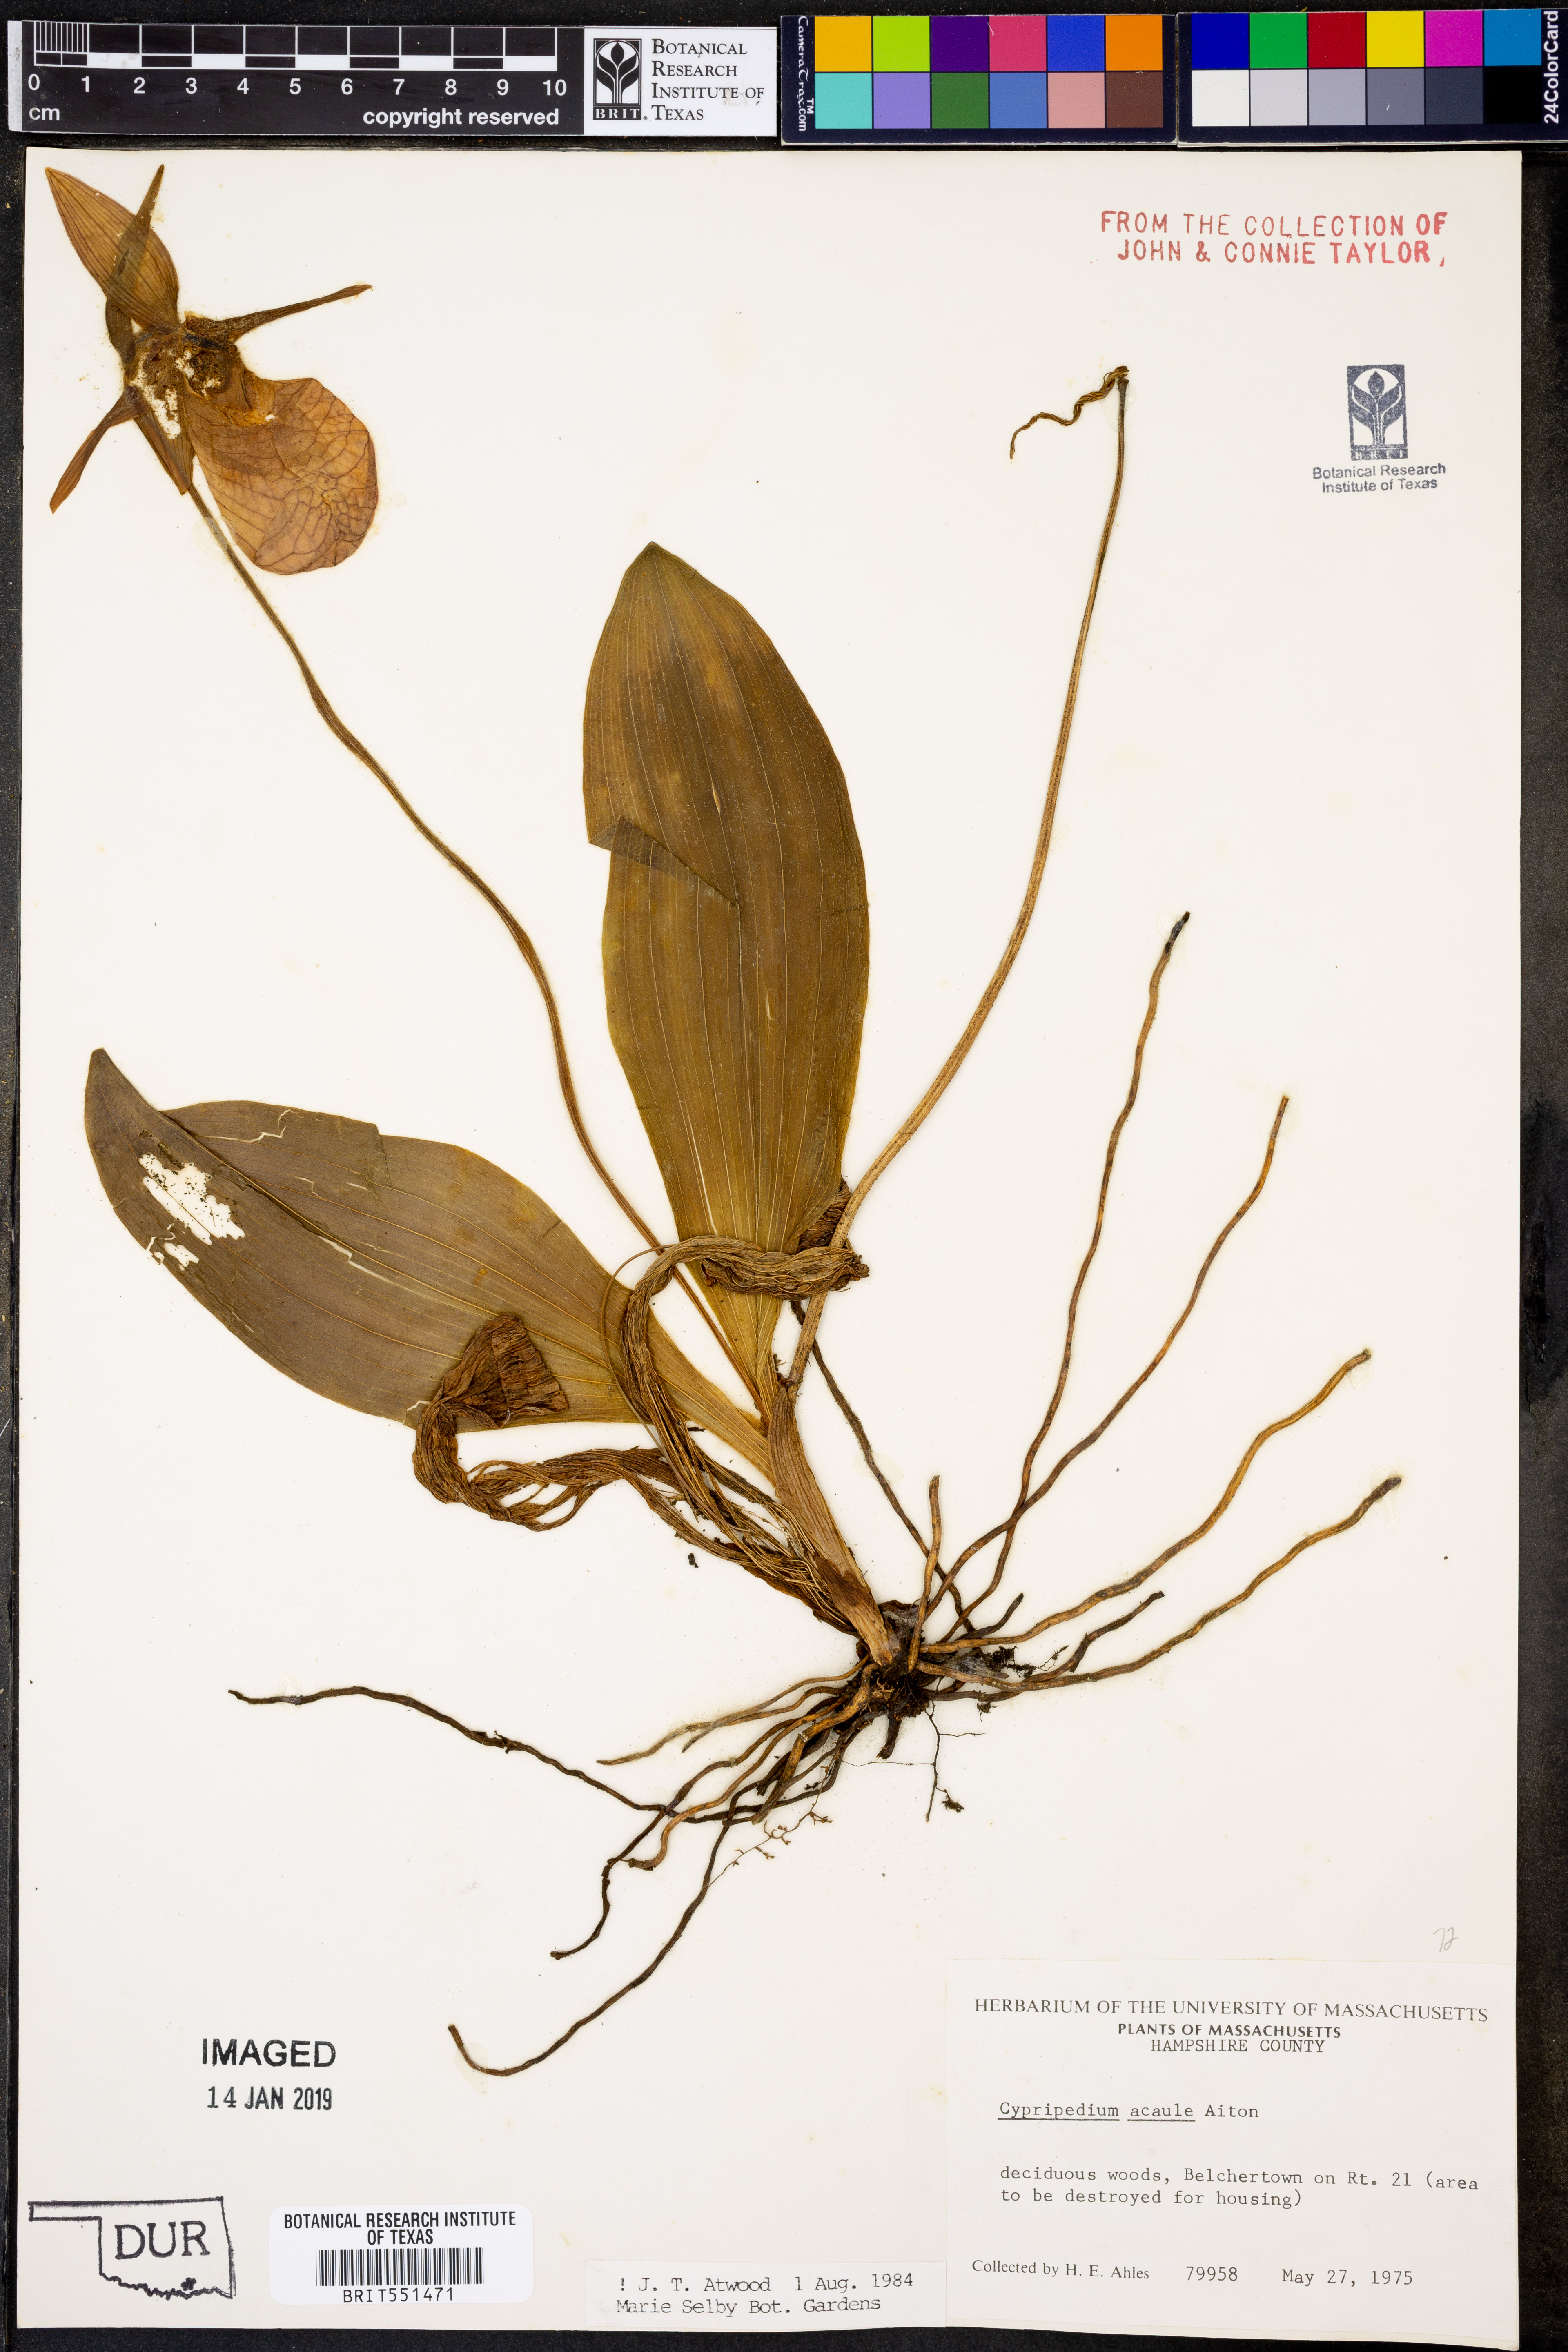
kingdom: Plantae
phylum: Tracheophyta
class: Liliopsida
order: Asparagales
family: Orchidaceae
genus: Cypripedium
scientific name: Cypripedium acaule
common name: Pink lady's-slipper
